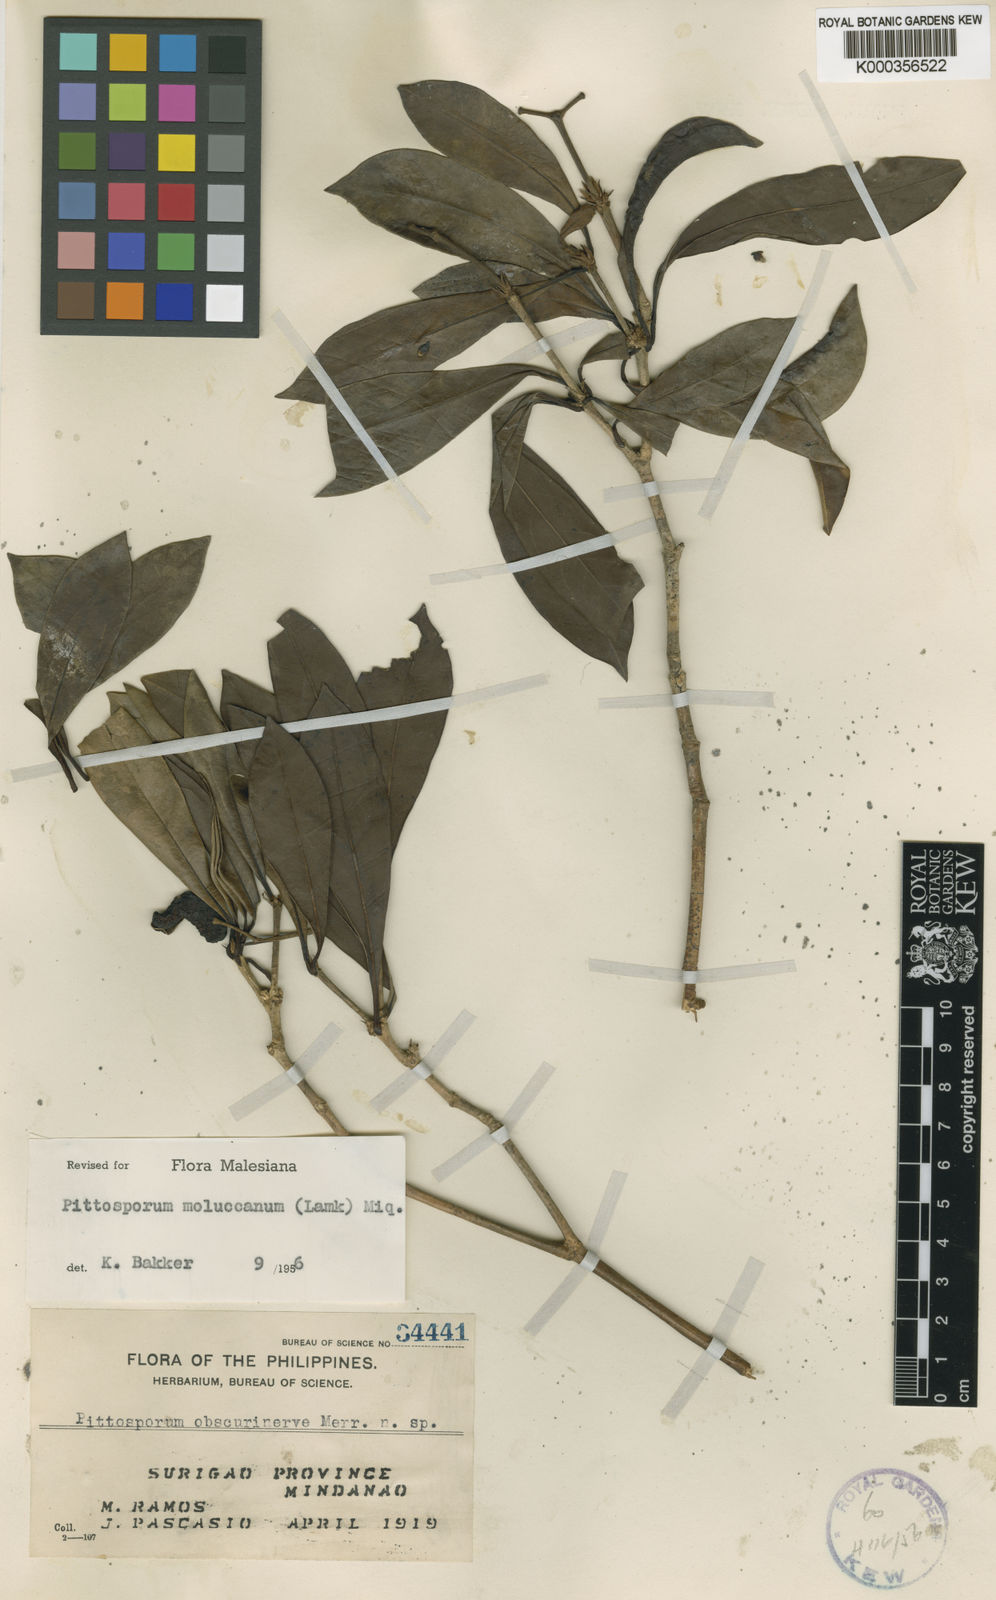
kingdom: Plantae
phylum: Tracheophyta
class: Magnoliopsida
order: Apiales
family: Pittosporaceae
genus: Pittosporum
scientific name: Pittosporum moluccanum
